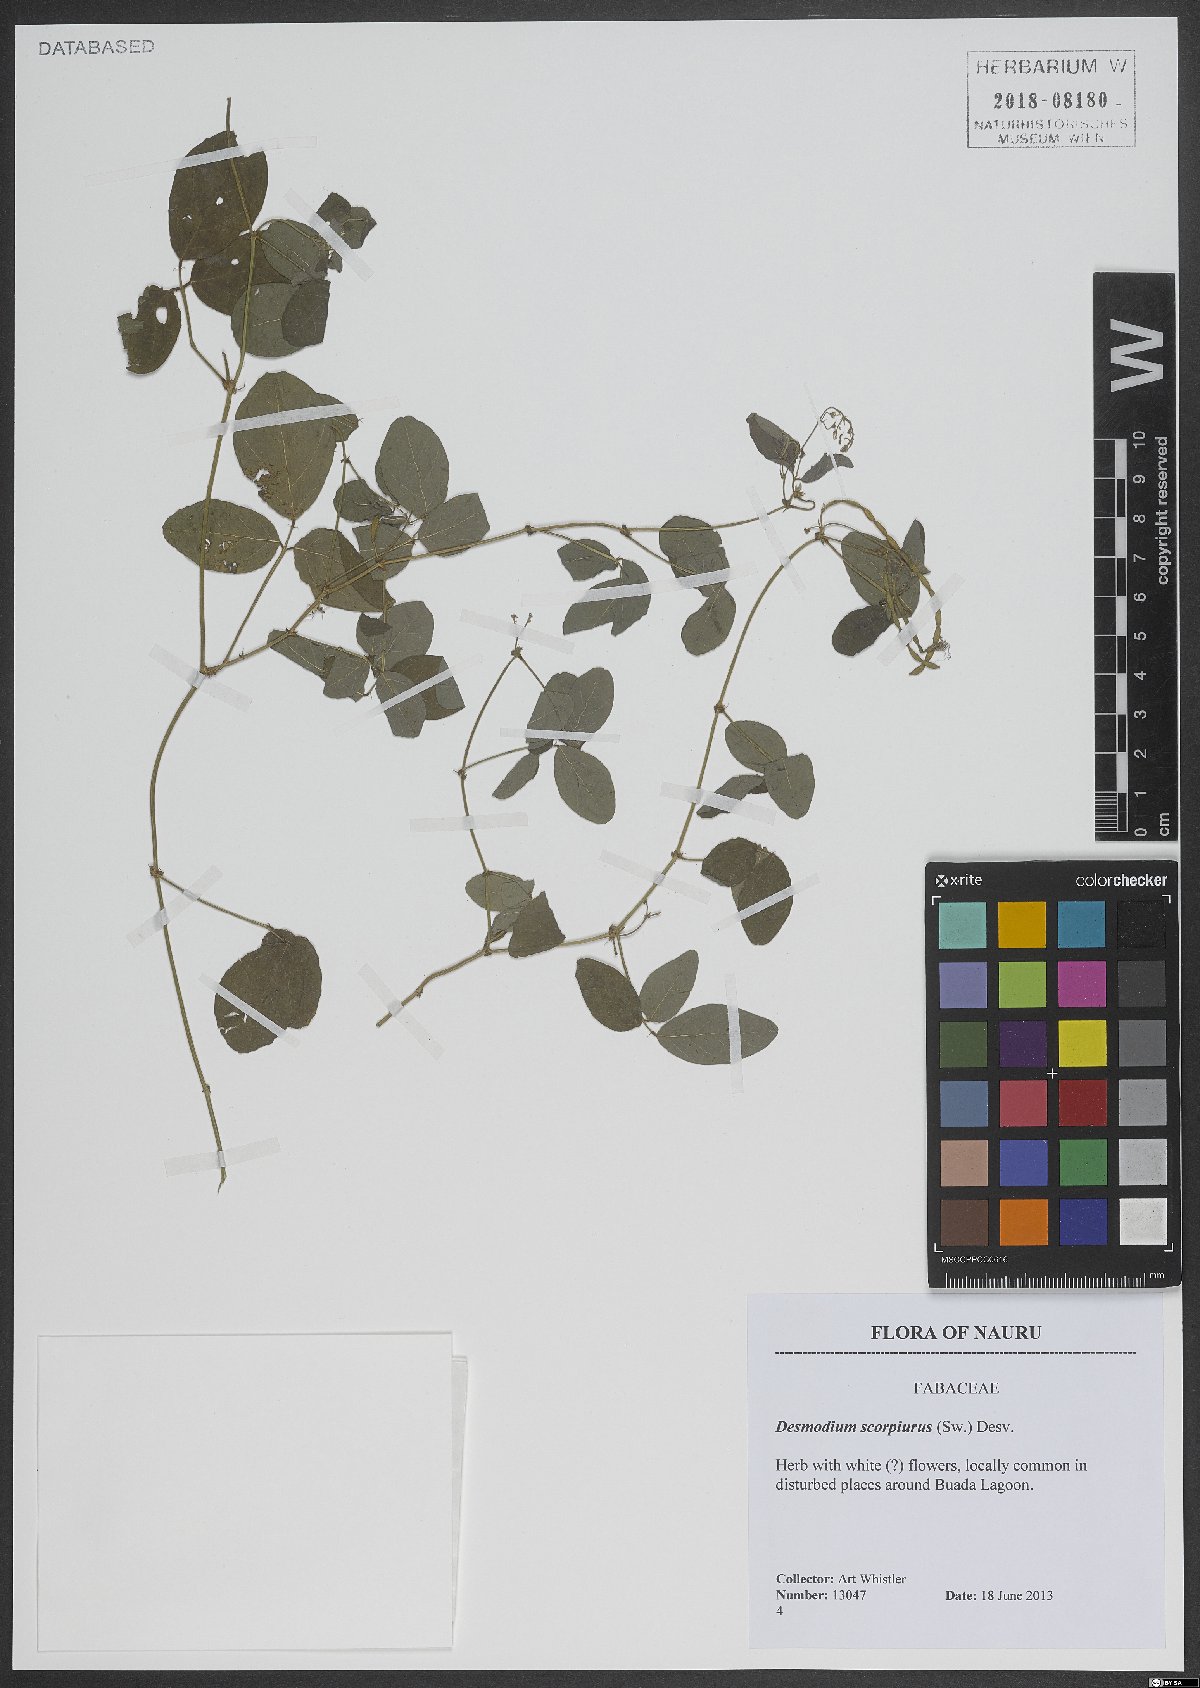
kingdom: Plantae
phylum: Tracheophyta
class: Magnoliopsida
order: Fabales
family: Fabaceae
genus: Desmodium
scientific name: Desmodium scorpiurus
